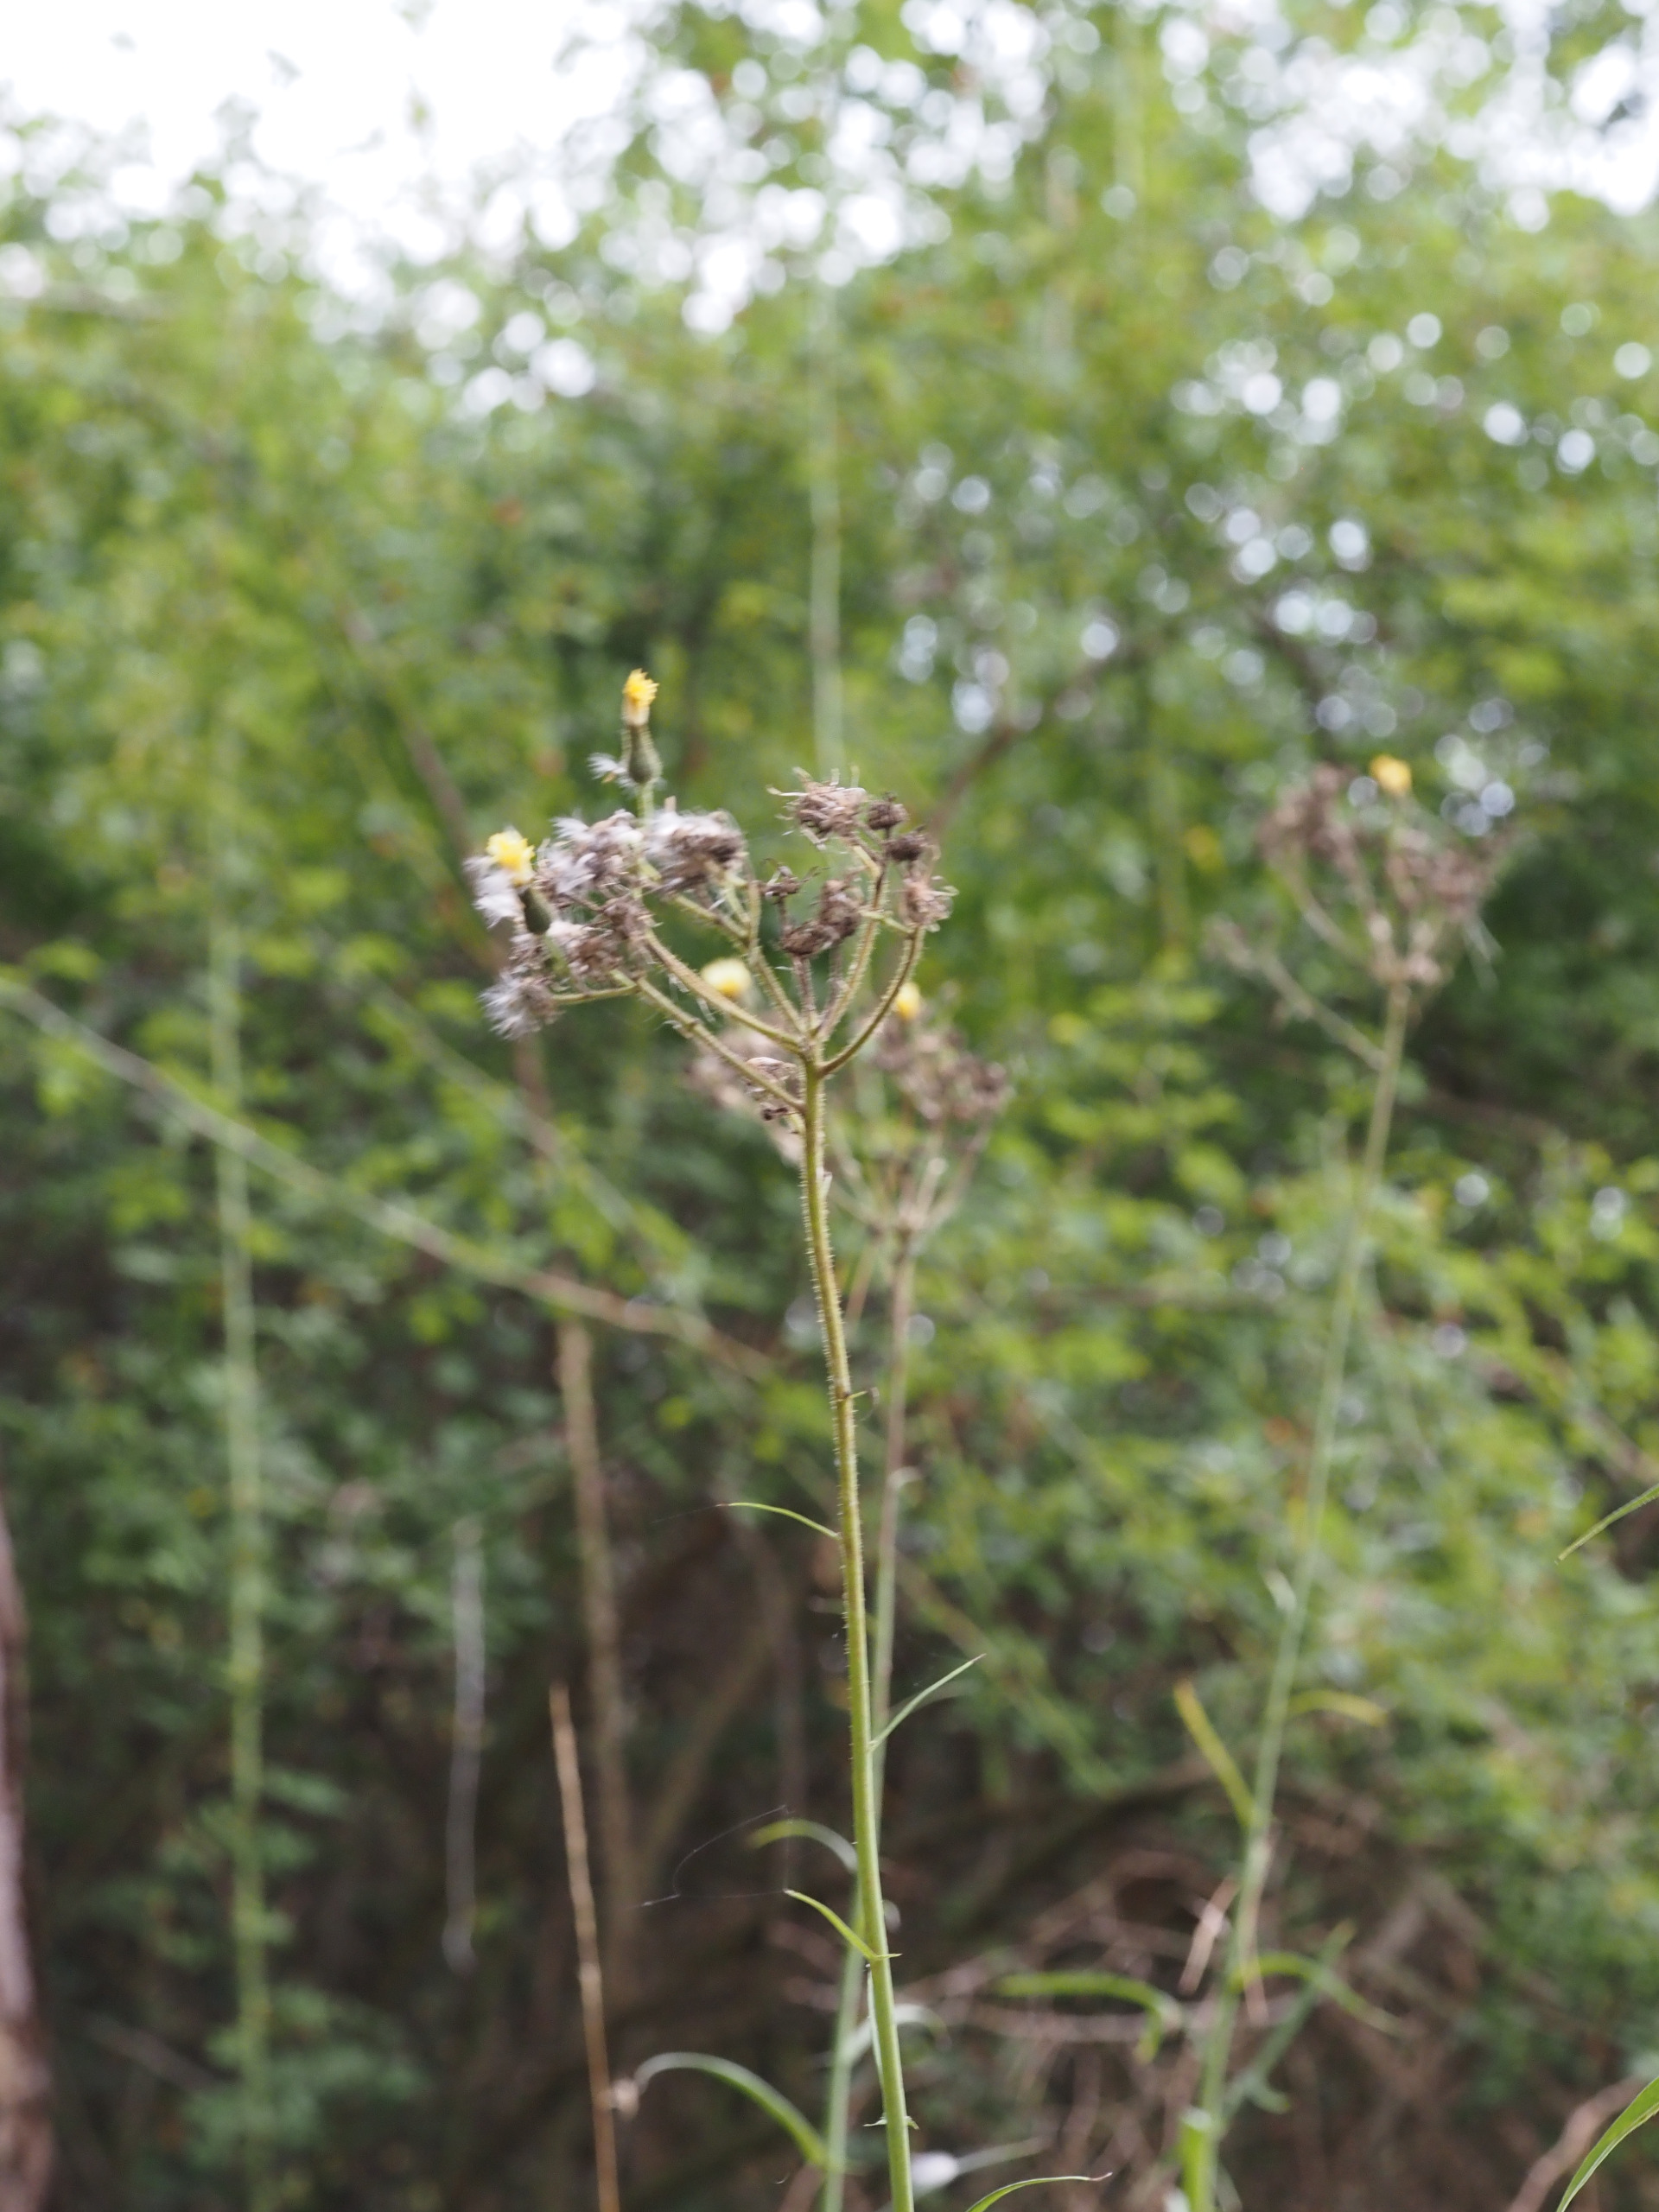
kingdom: Plantae
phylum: Tracheophyta
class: Magnoliopsida
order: Asterales
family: Asteraceae
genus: Sonchus
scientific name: Sonchus palustris
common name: Kær-svinemælk
